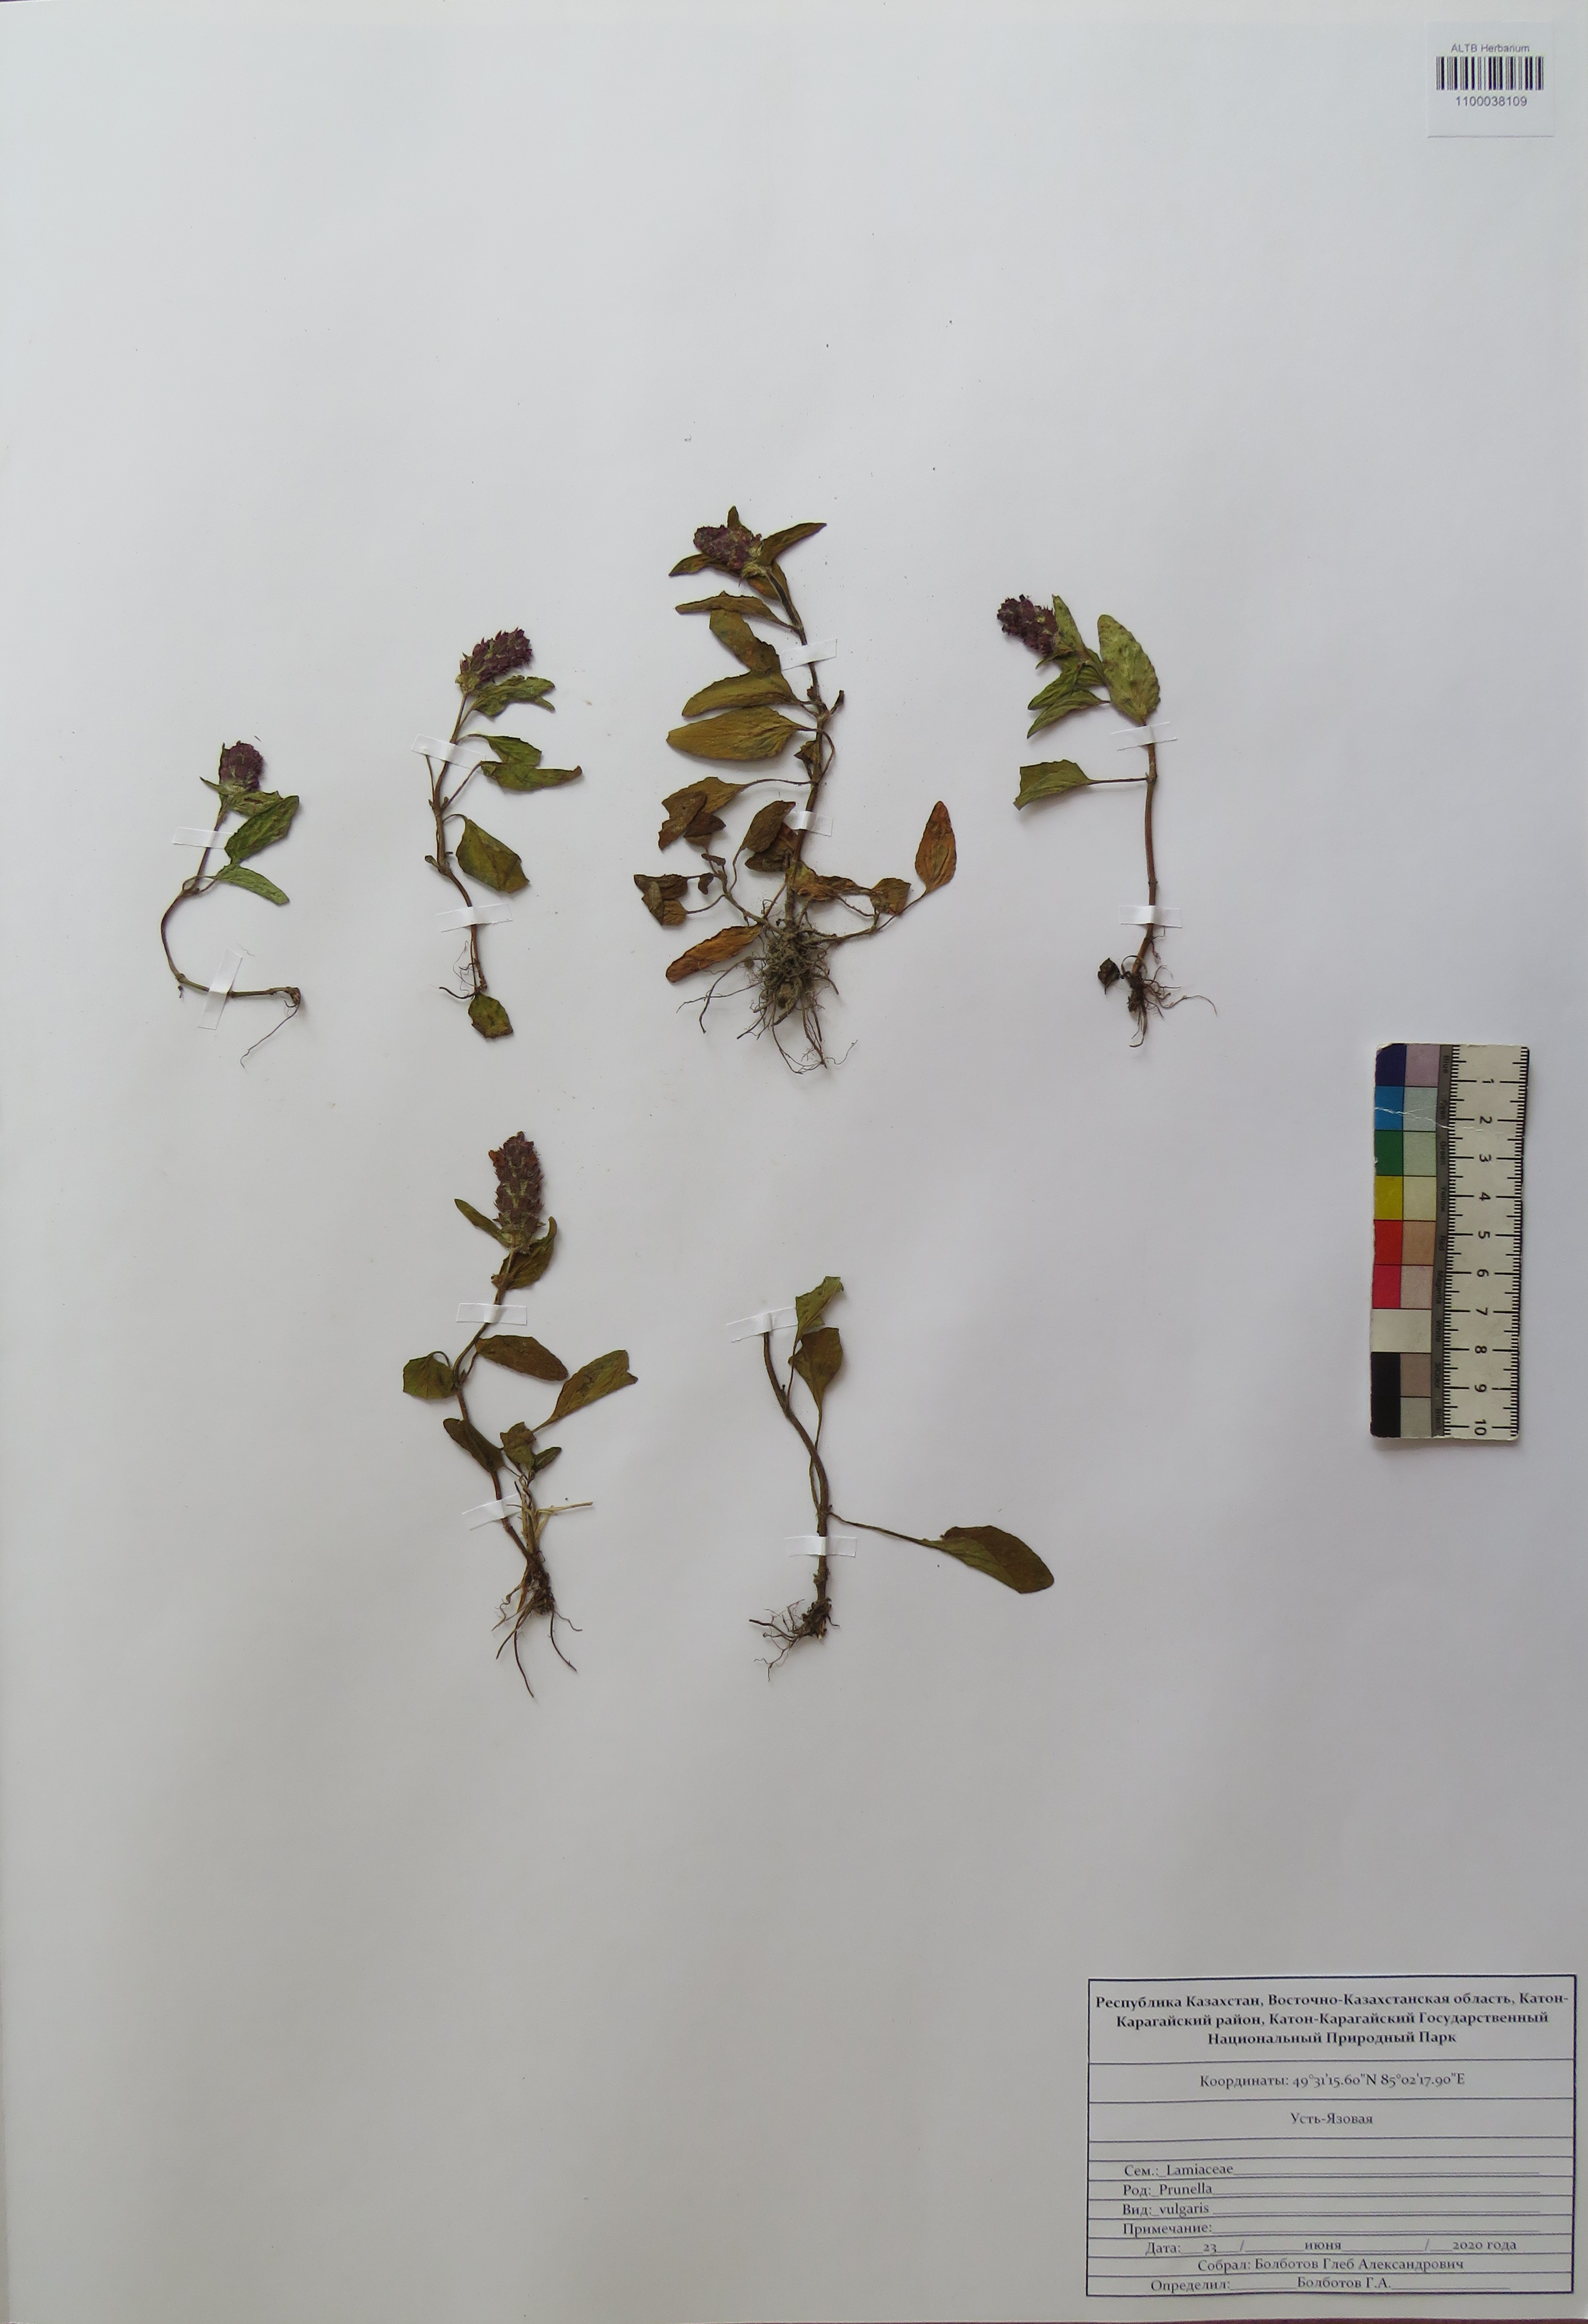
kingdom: Plantae
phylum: Tracheophyta
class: Magnoliopsida
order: Lamiales
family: Lamiaceae
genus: Prunella
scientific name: Prunella vulgaris
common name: Heal-all
